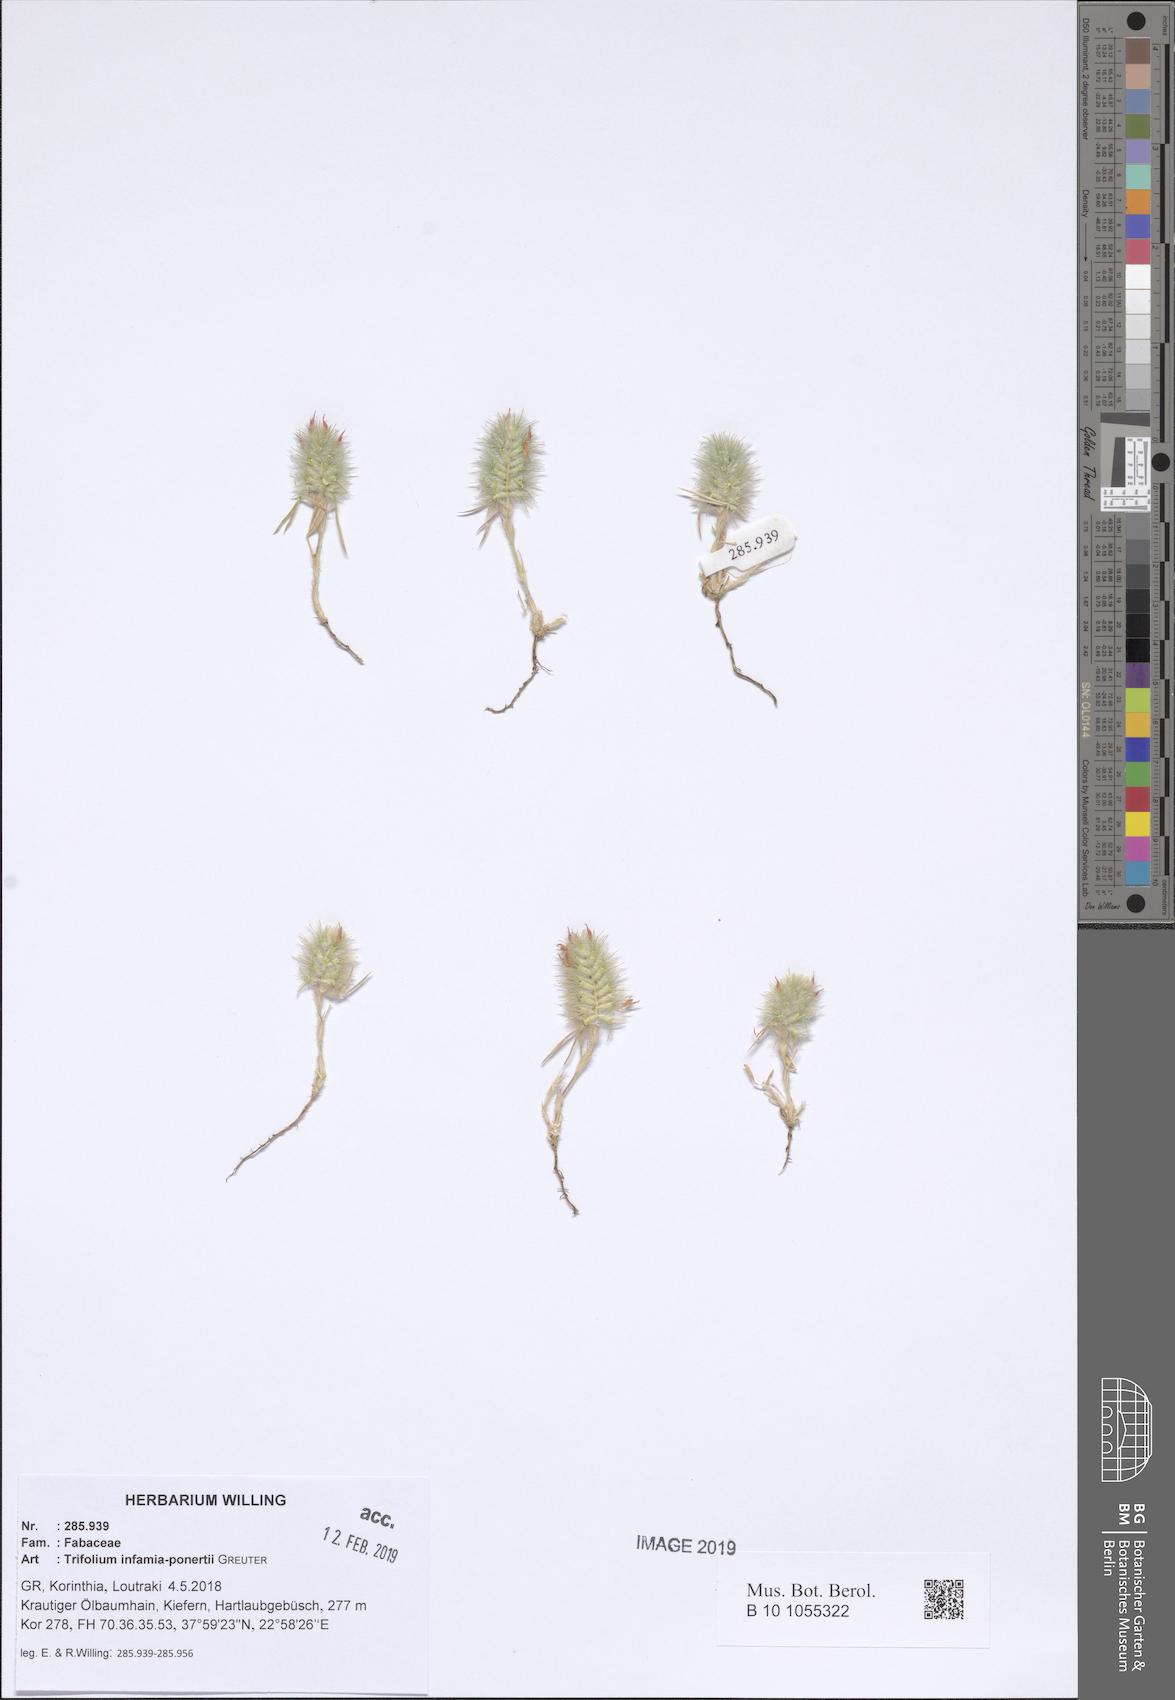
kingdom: Plantae
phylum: Tracheophyta
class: Magnoliopsida
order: Fabales
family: Fabaceae
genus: Trifolium
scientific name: Trifolium infamia-ponertii
